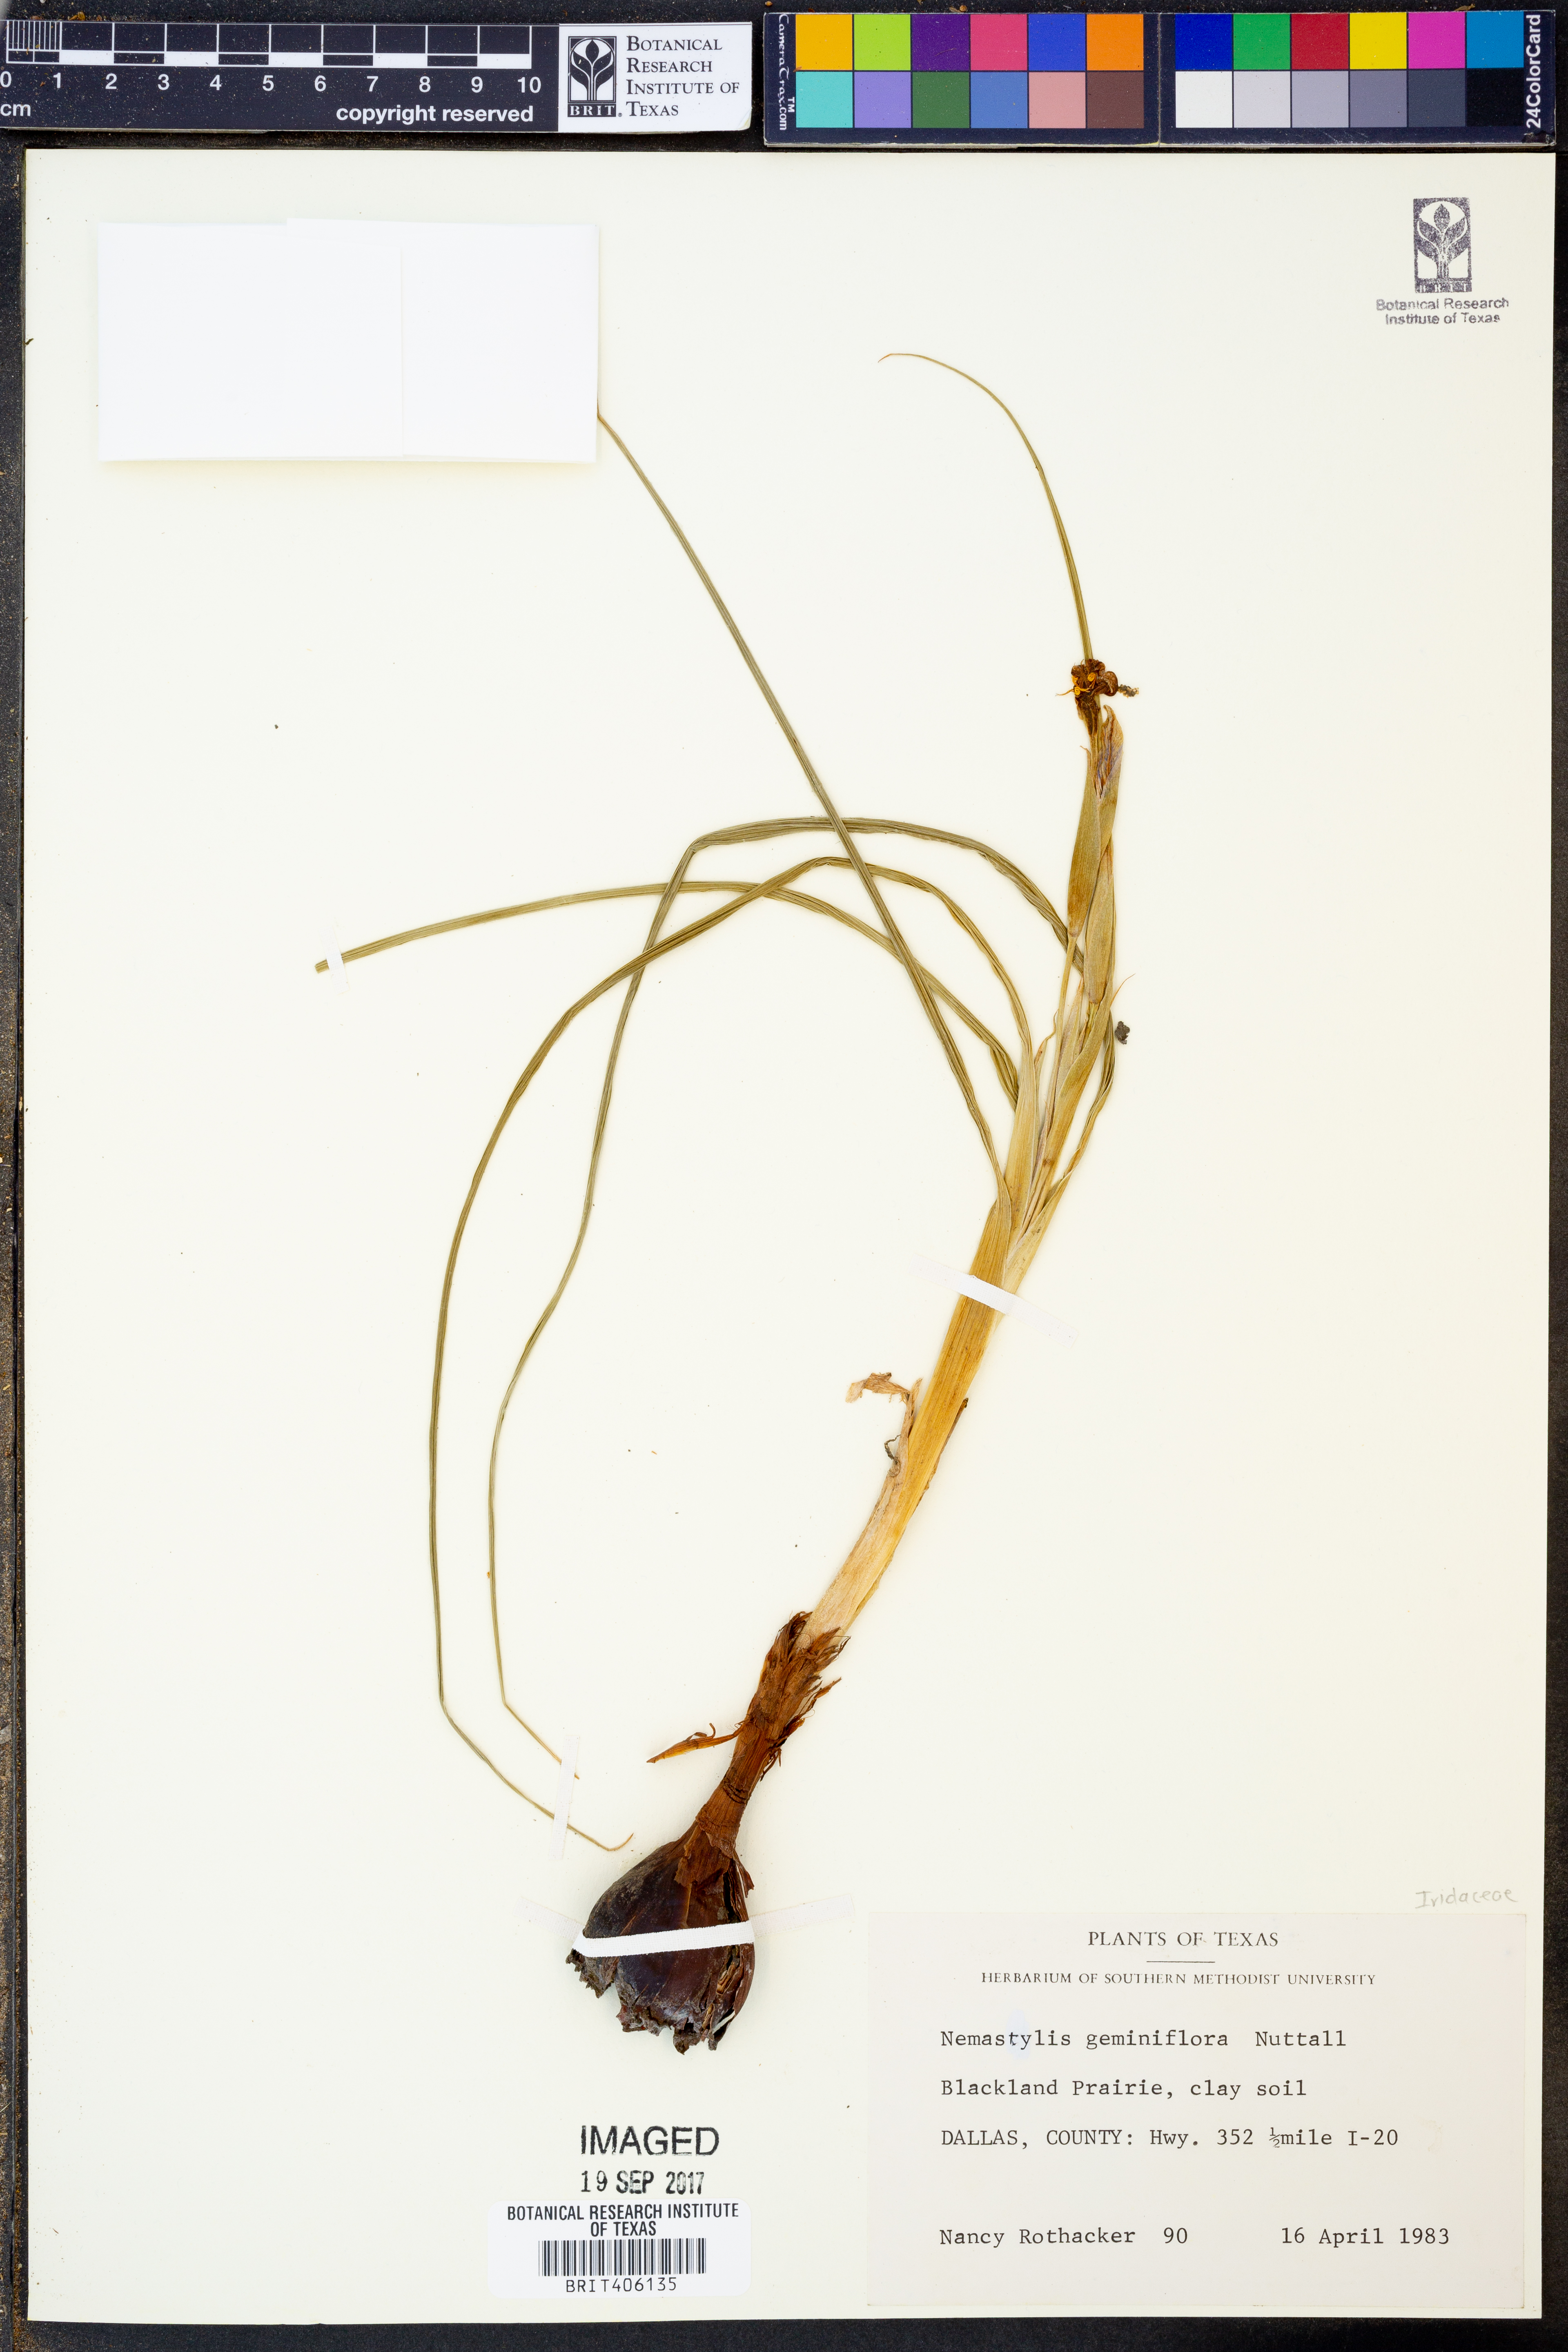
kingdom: Plantae
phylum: Tracheophyta
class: Liliopsida
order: Asparagales
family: Iridaceae
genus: Nemastylis
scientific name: Nemastylis geminiflora
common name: Prairie celestial
